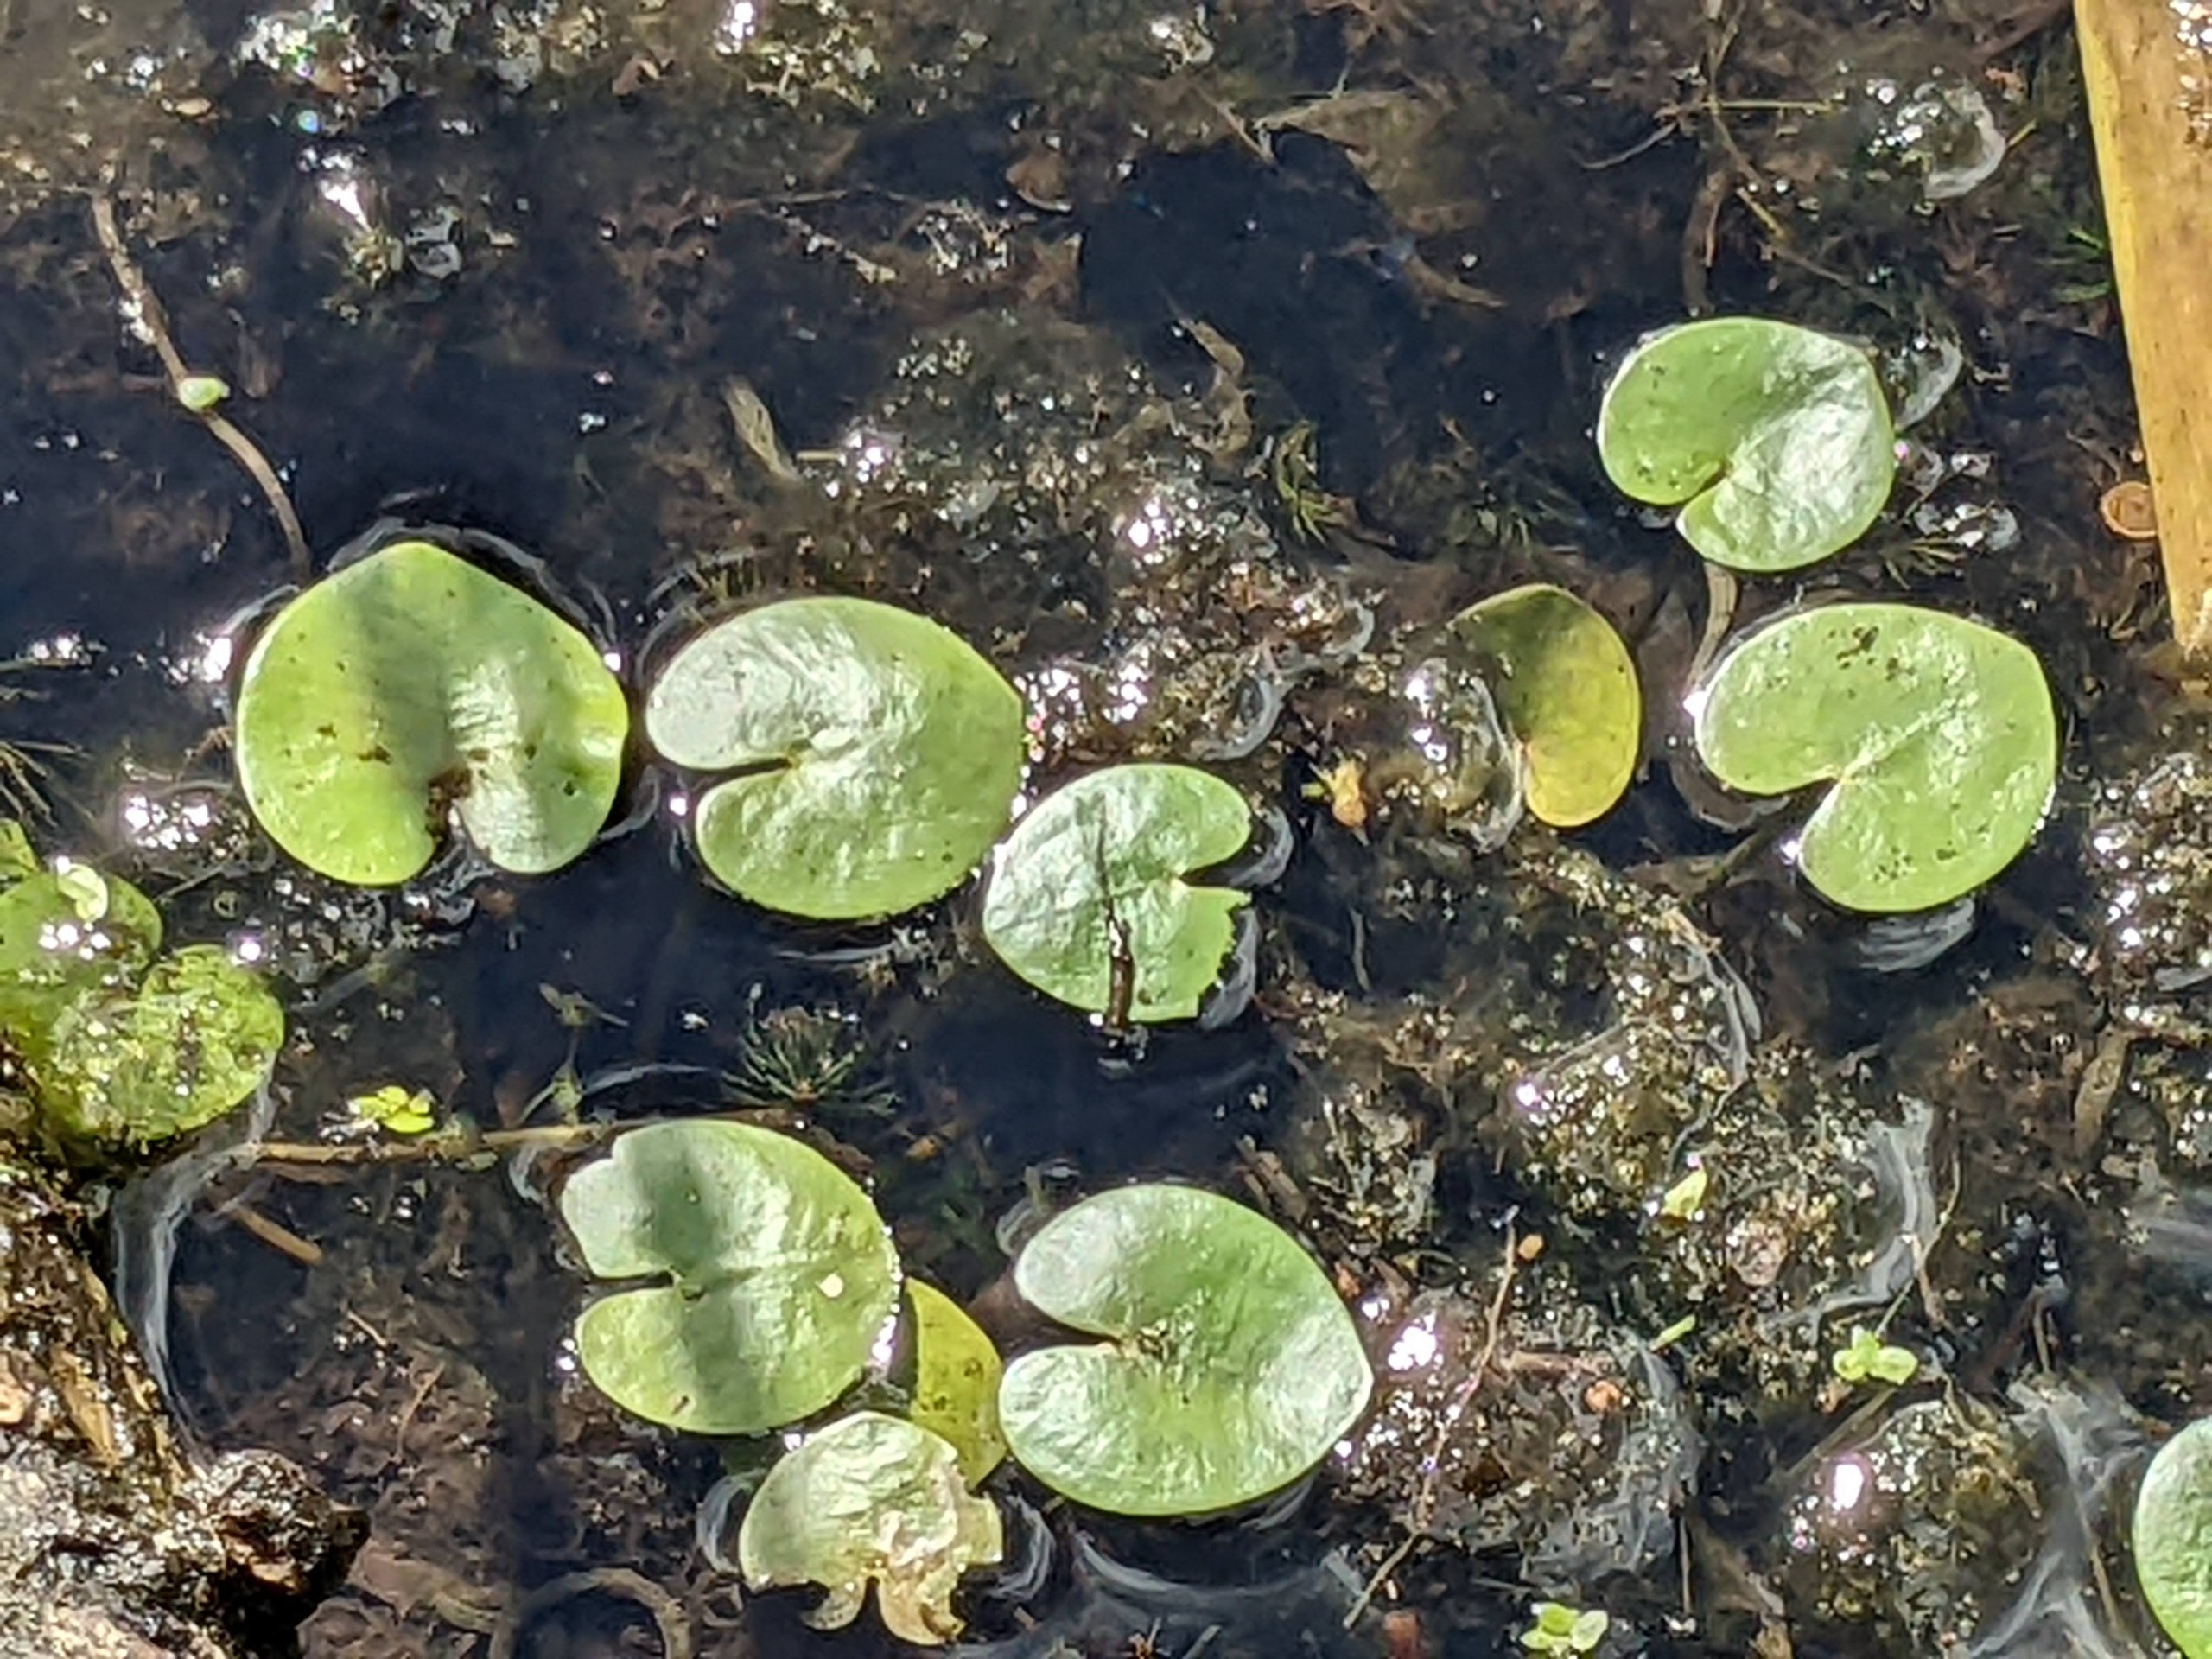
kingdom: Plantae
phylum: Tracheophyta
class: Liliopsida
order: Alismatales
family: Hydrocharitaceae
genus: Hydrocharis
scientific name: Hydrocharis morsus-ranae
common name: Frøbid
